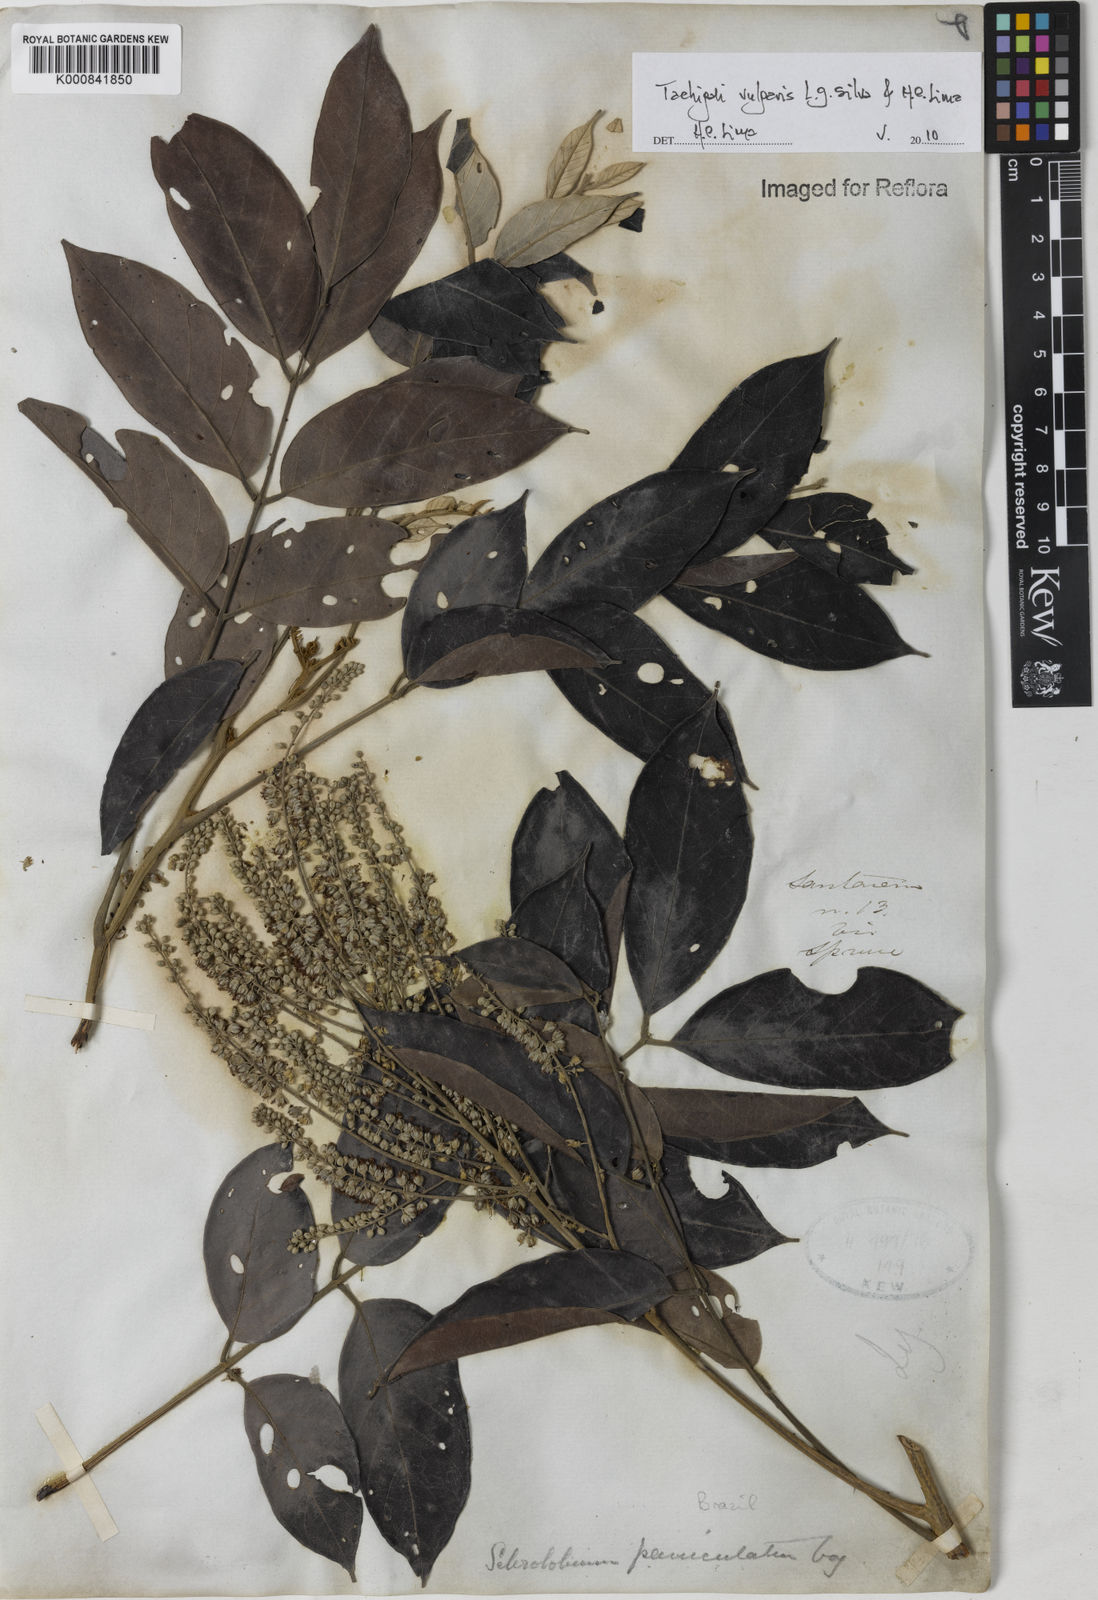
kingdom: Plantae
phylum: Tracheophyta
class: Magnoliopsida
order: Fabales
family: Fabaceae
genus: Tachigali
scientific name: Tachigali vulgaris
